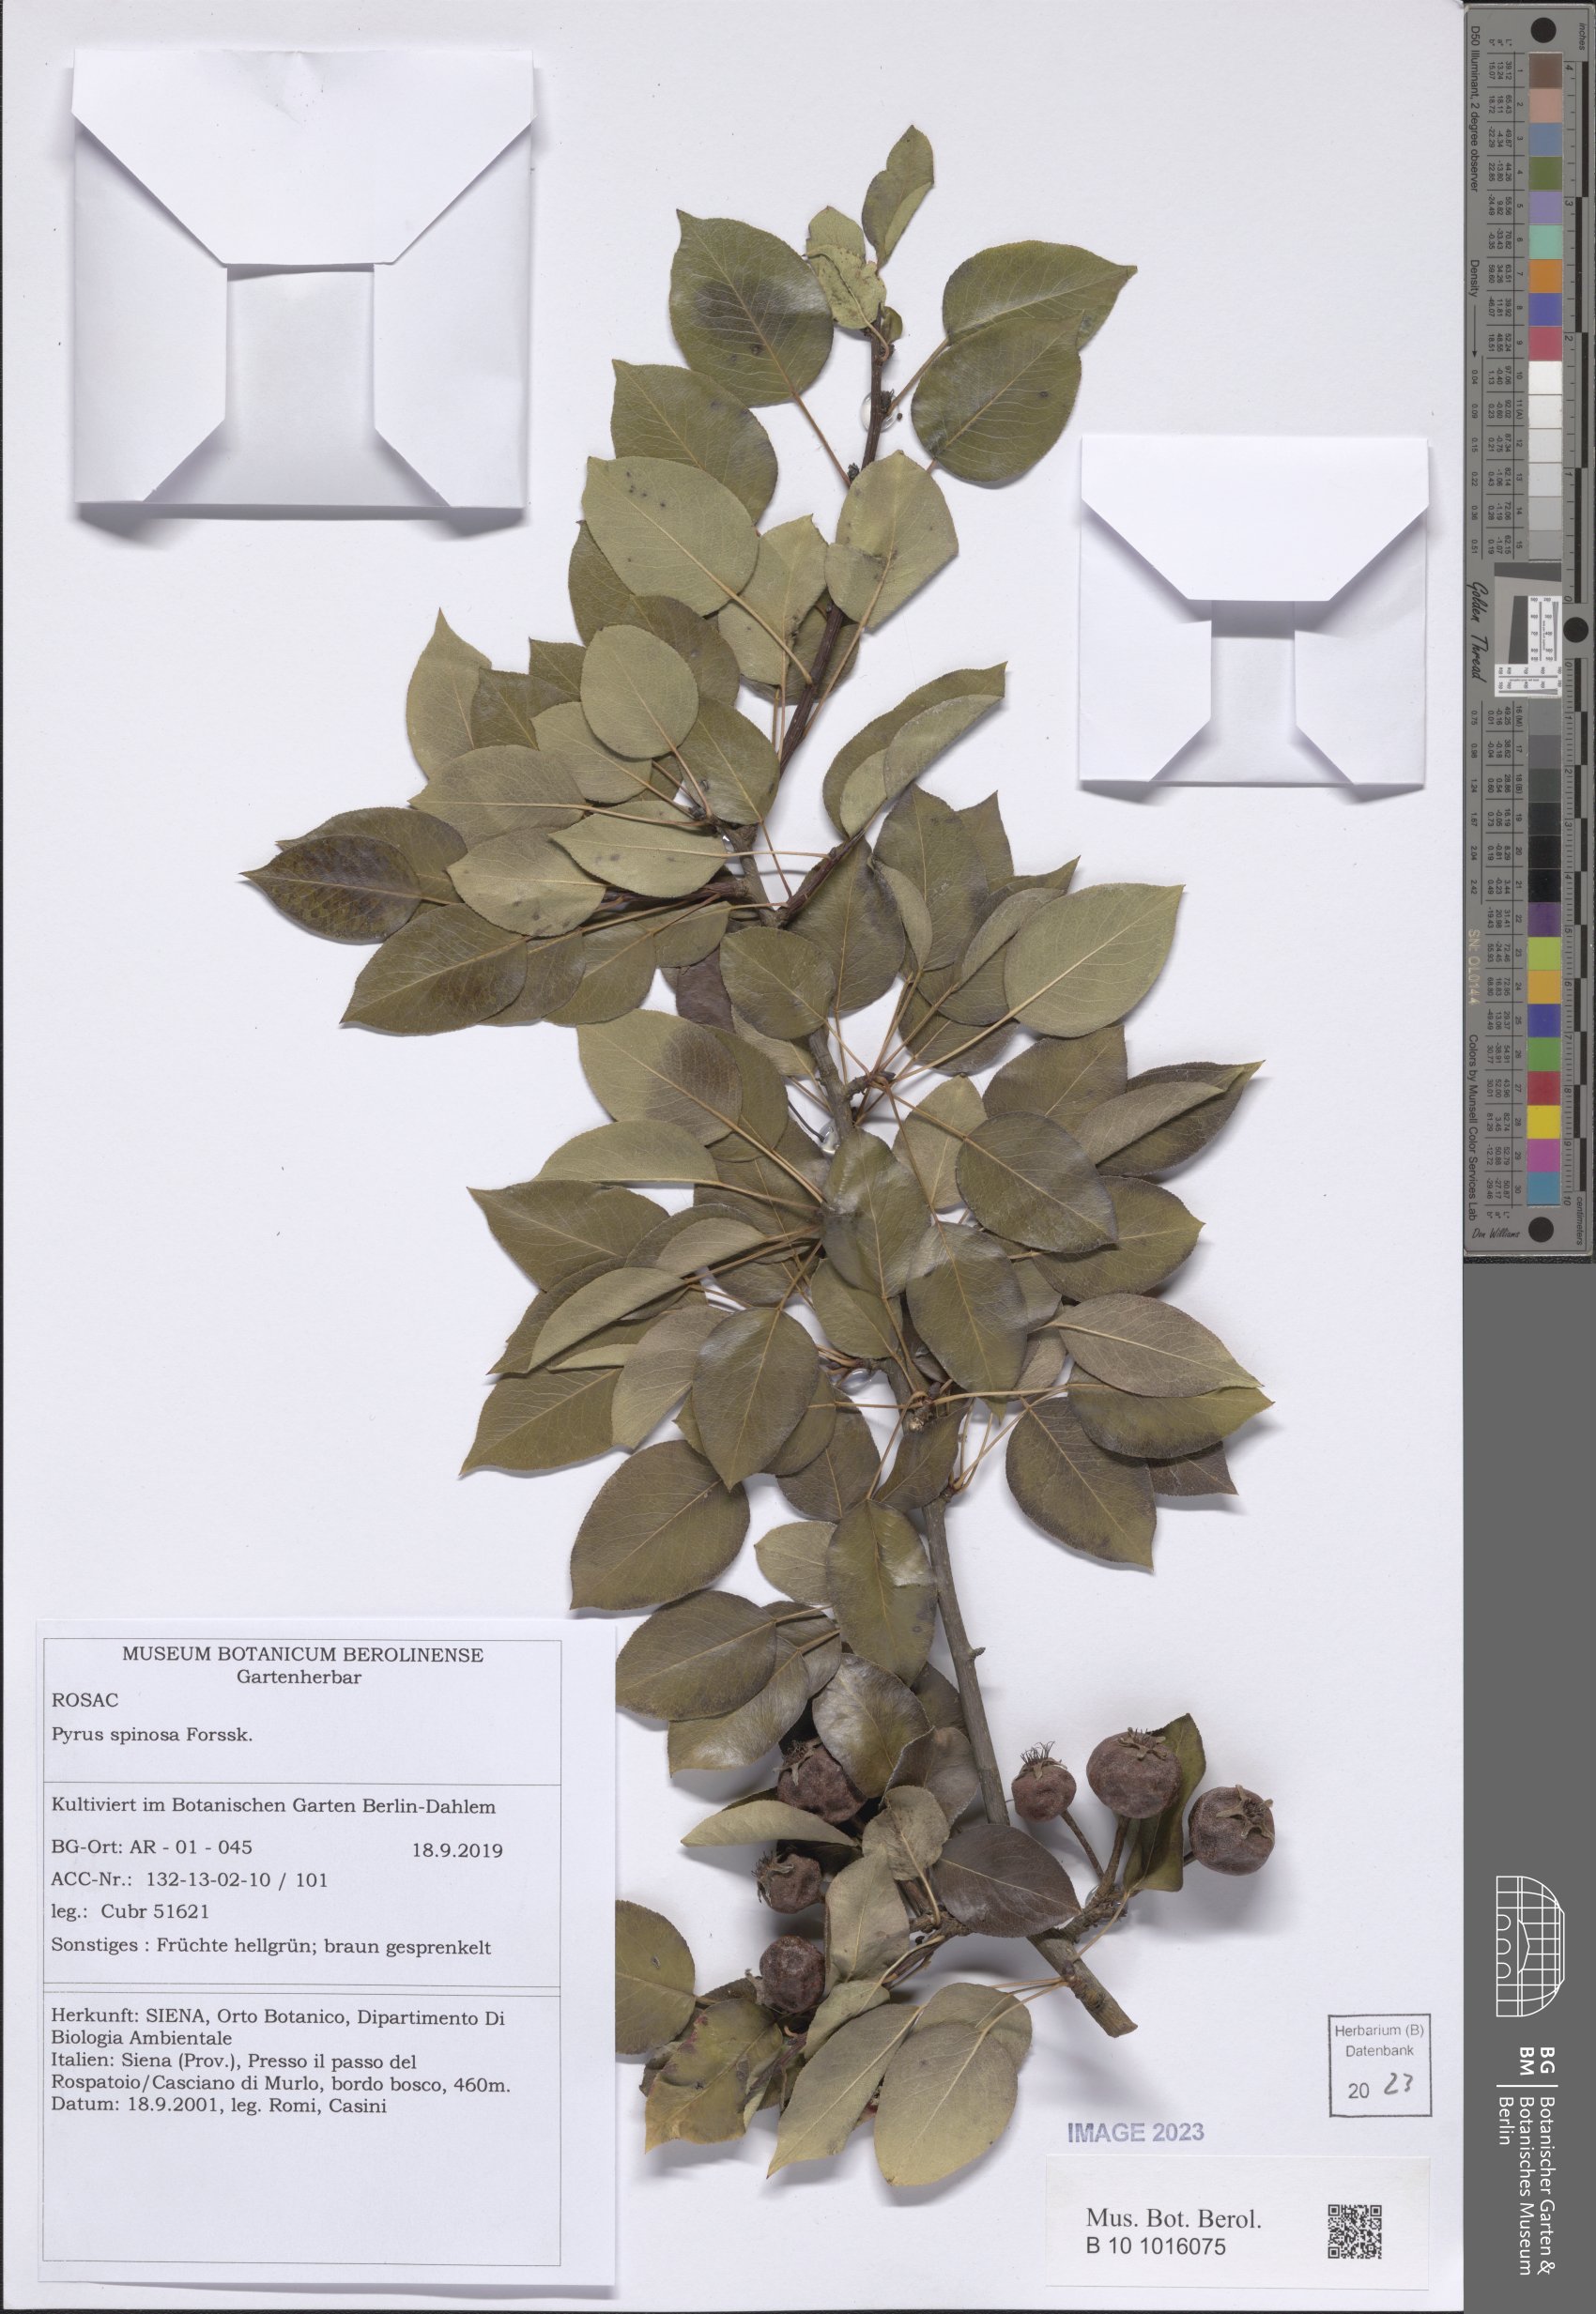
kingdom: Plantae
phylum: Tracheophyta
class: Magnoliopsida
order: Rosales
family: Rosaceae
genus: Pyrus
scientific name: Pyrus boissieriana
